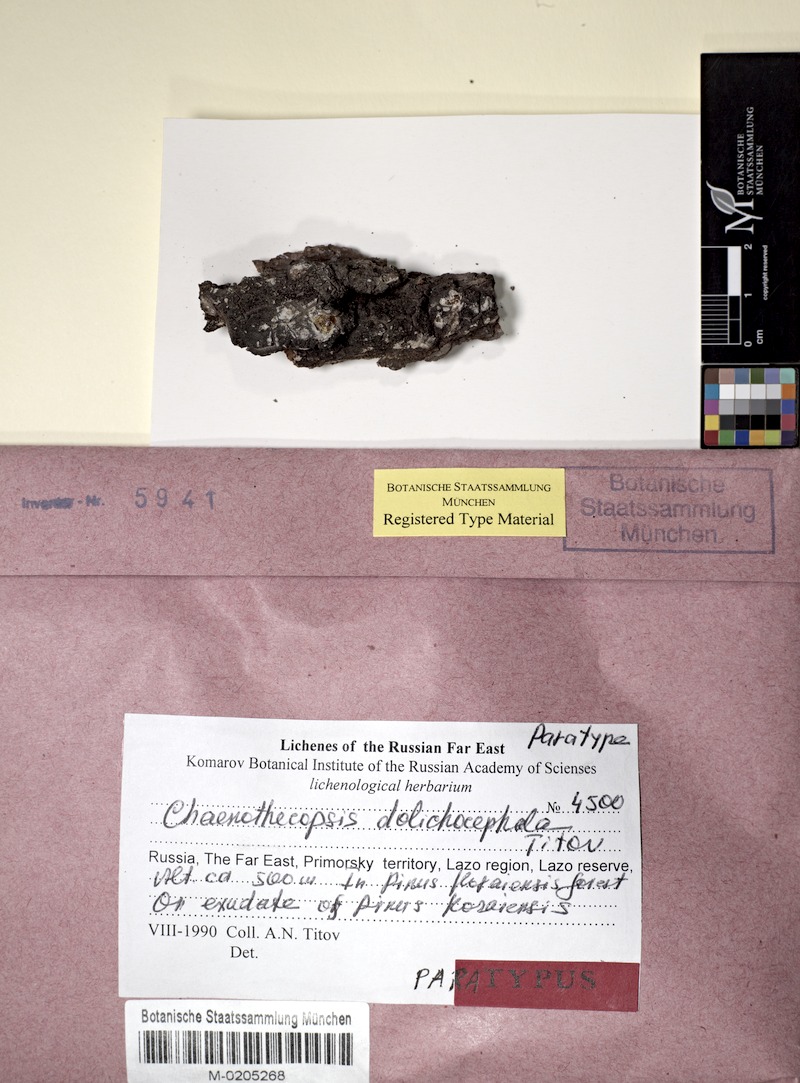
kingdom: Fungi
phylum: Ascomycota
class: Eurotiomycetes
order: Mycocaliciales
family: Mycocaliciaceae
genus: Chaenothecopsis
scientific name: Chaenothecopsis
